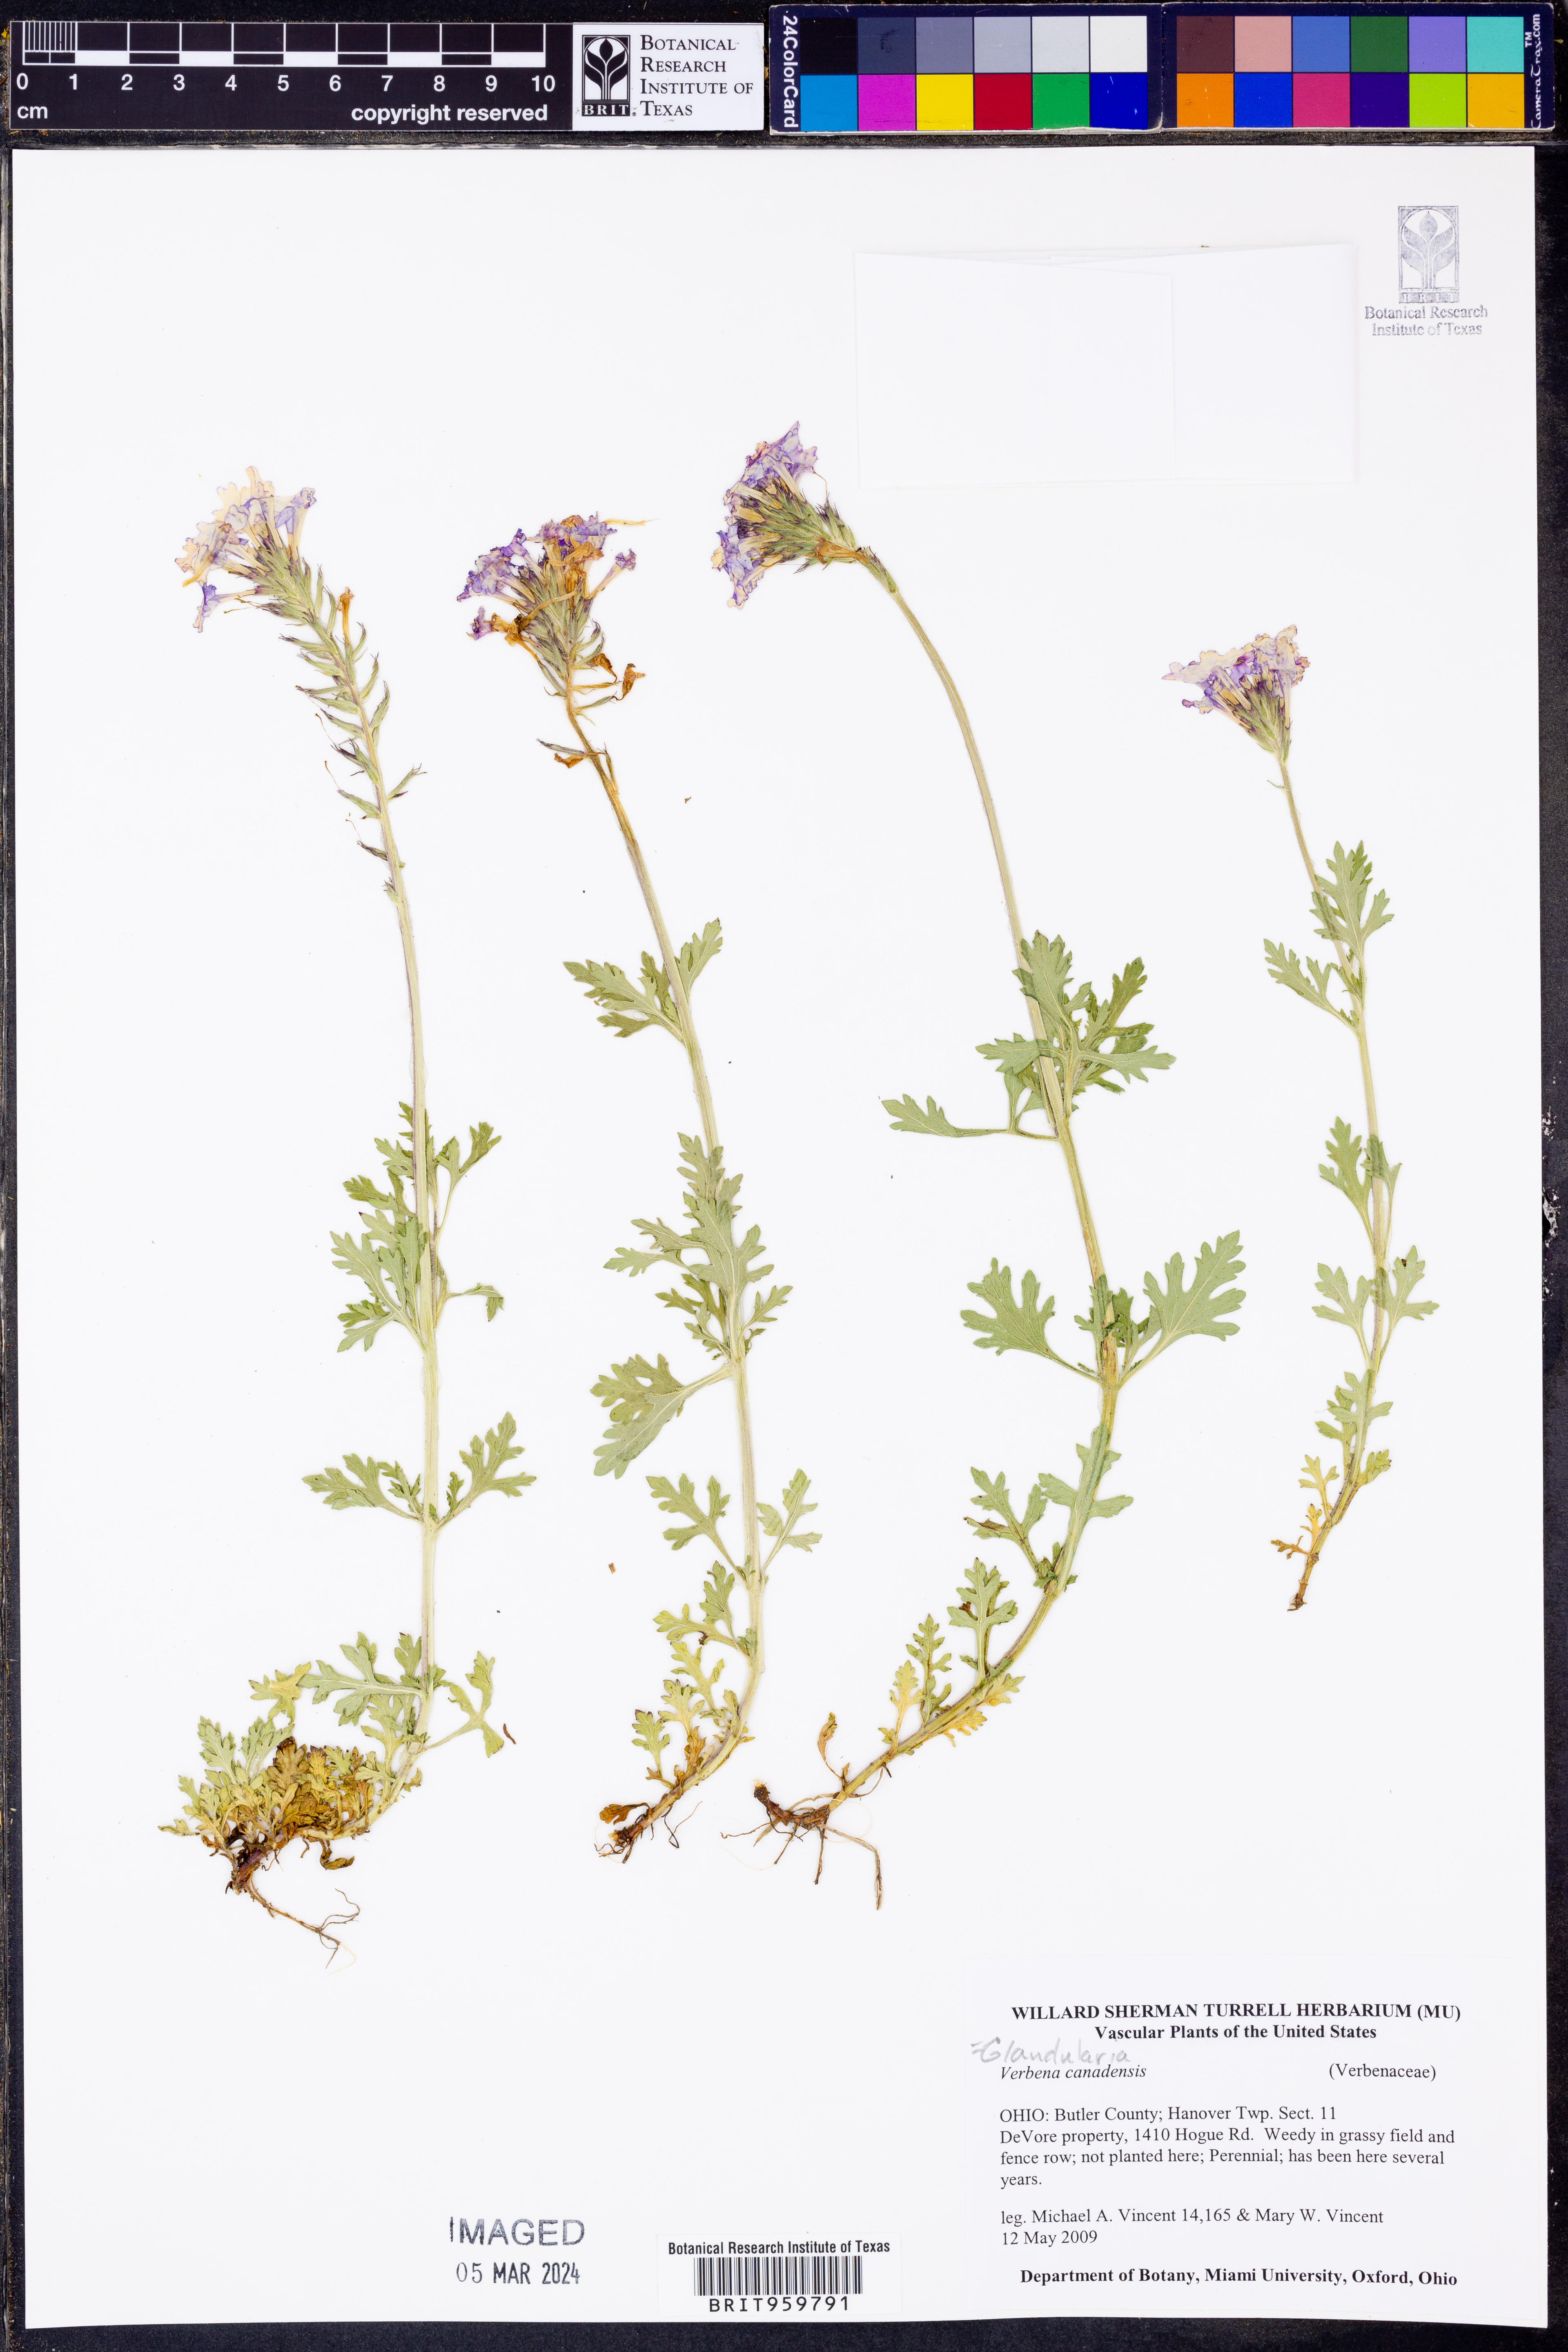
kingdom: Plantae
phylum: Tracheophyta
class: Magnoliopsida
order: Lamiales
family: Verbenaceae
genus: Verbena
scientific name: Verbena canadensis
